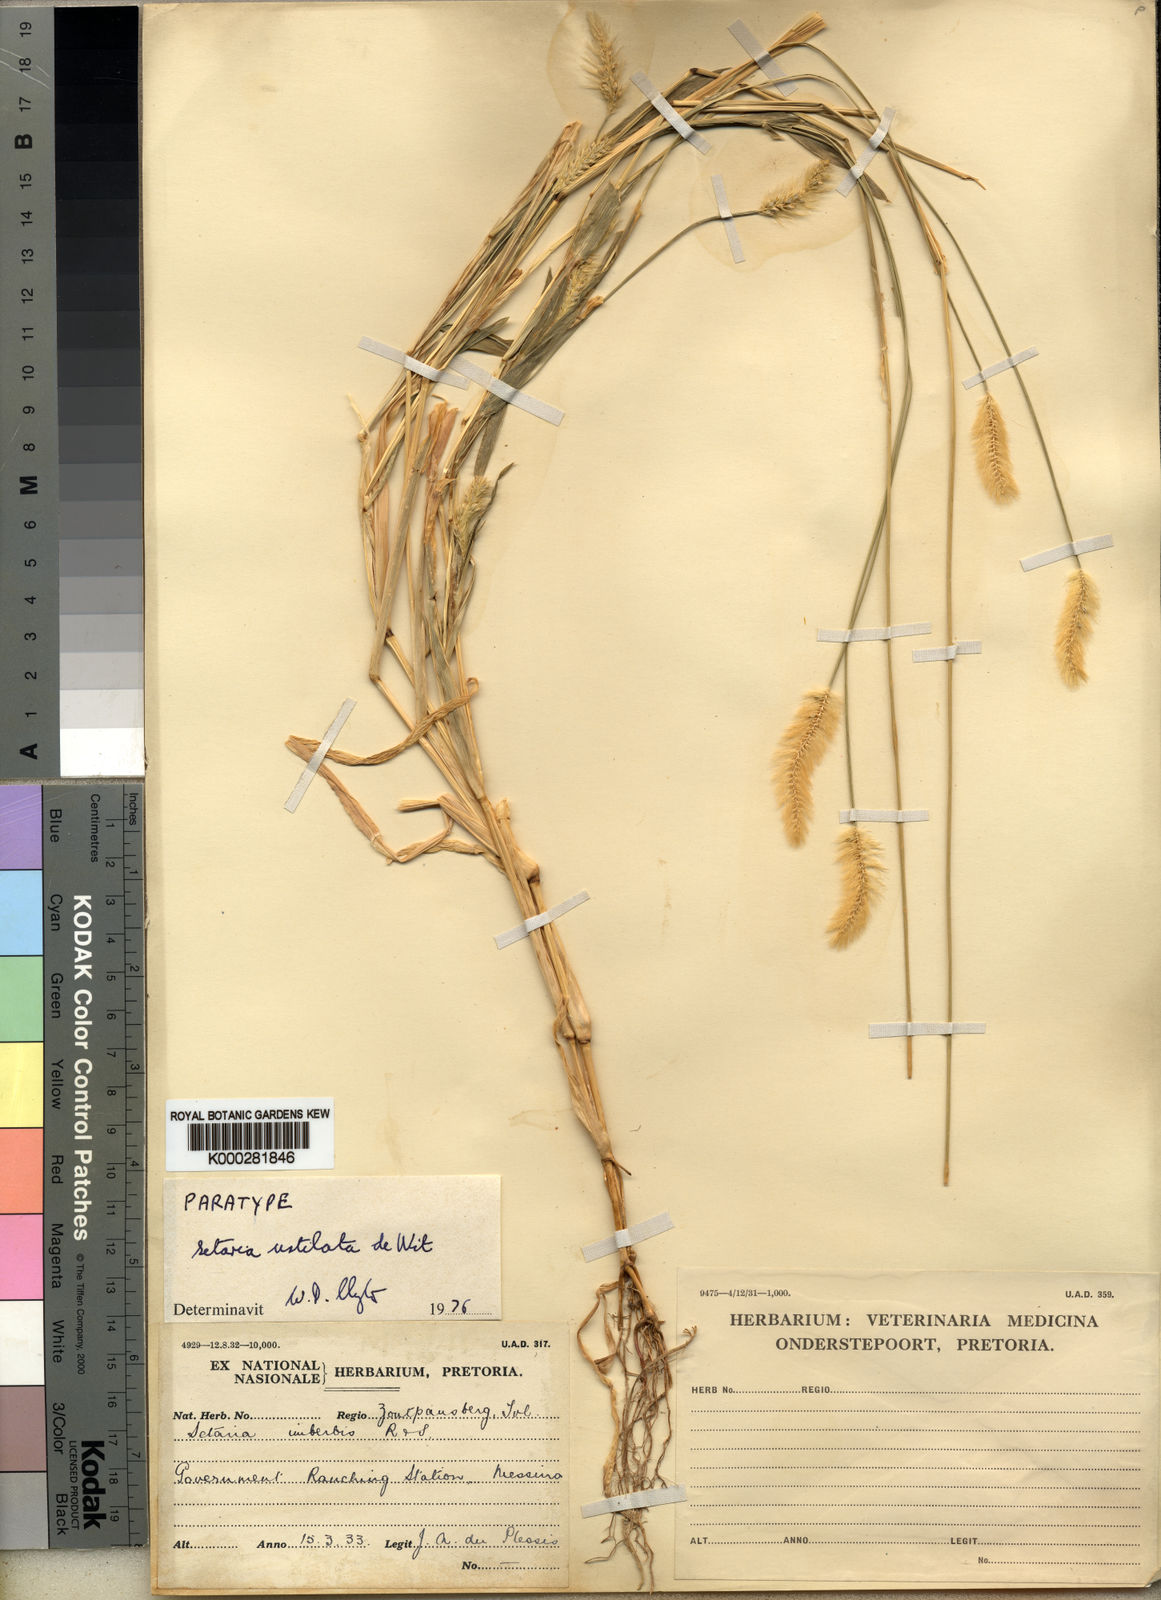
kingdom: Plantae
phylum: Tracheophyta
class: Liliopsida
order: Poales
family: Poaceae
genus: Setaria
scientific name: Setaria pumila
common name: Yellow bristle-grass
